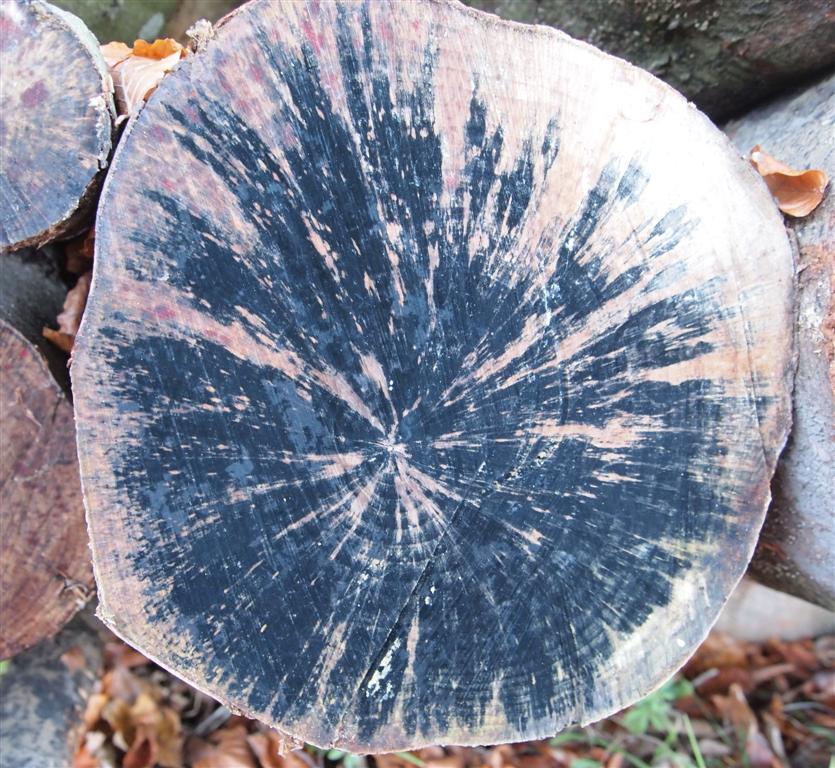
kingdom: Fungi
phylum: Ascomycota
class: Leotiomycetes
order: Helotiales
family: Helotiaceae
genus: Bispora
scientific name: Bispora pallescens
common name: måtte-snitskive
